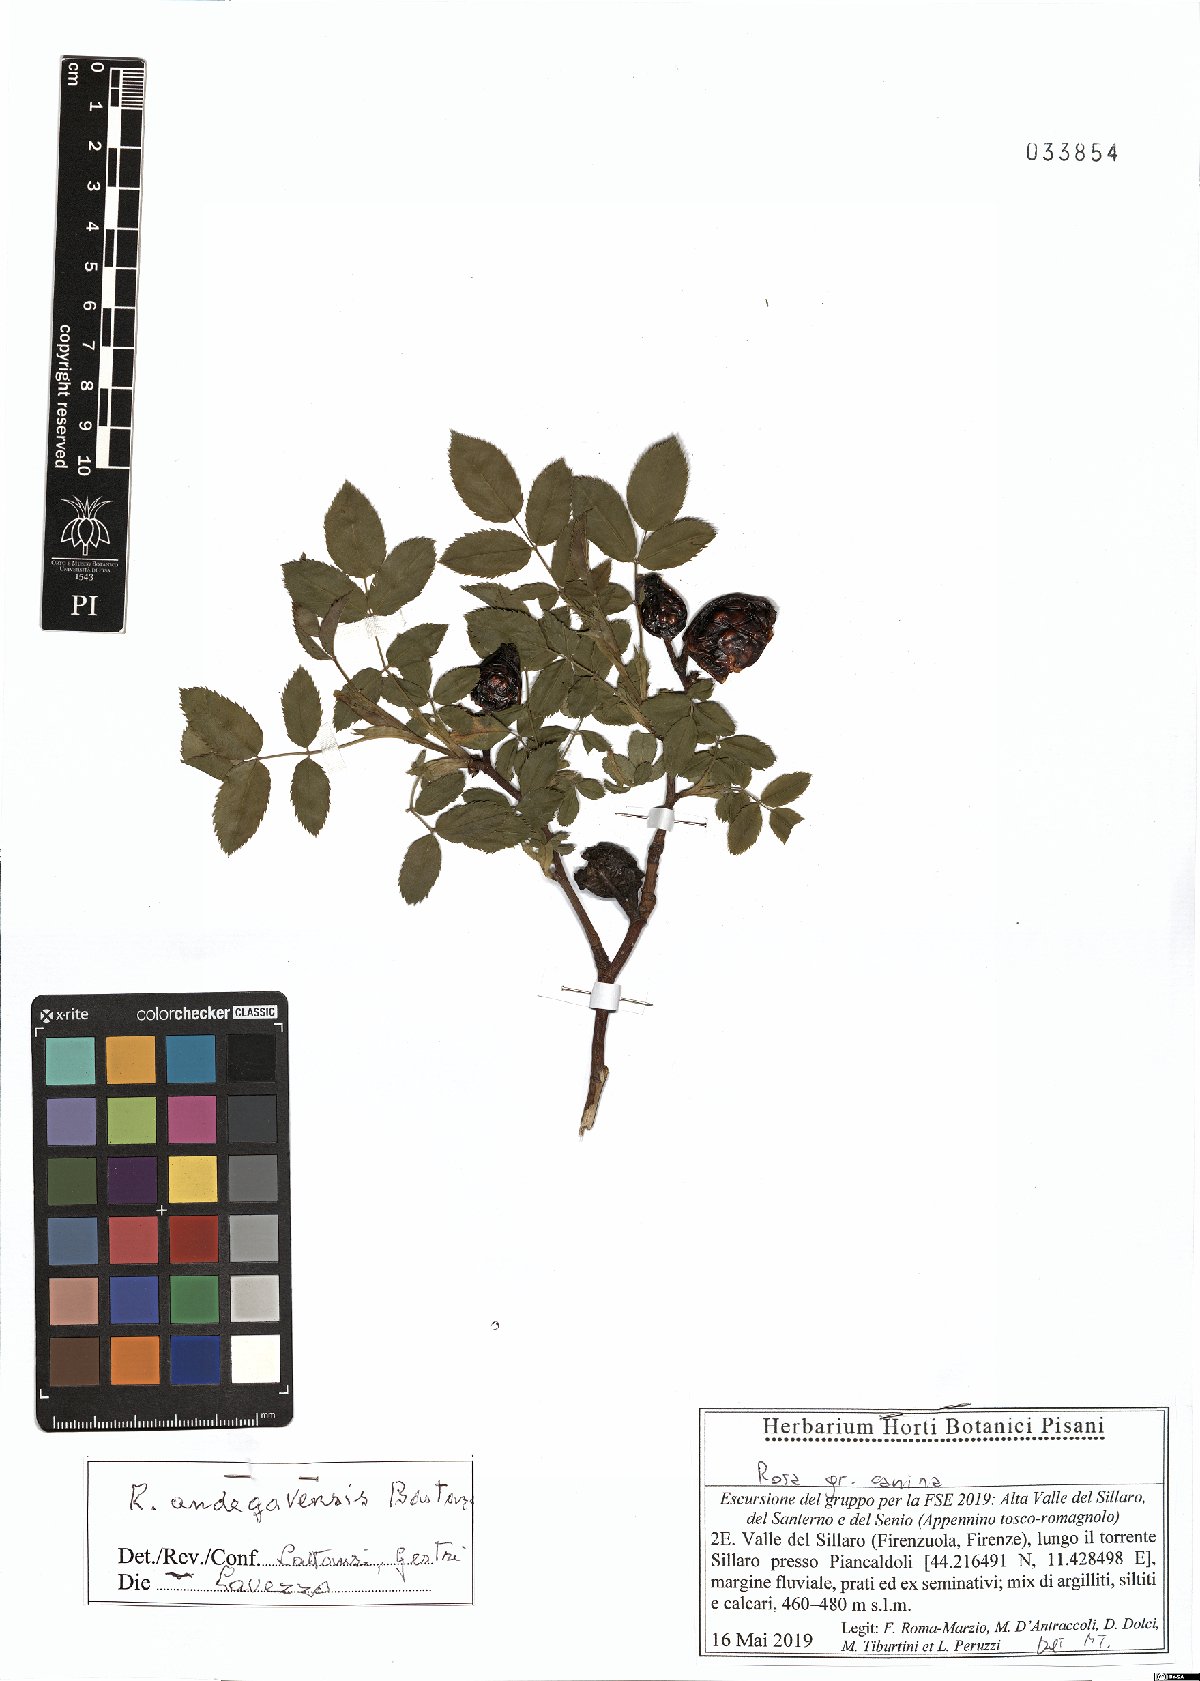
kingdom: Plantae
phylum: Tracheophyta
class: Magnoliopsida
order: Rosales
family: Rosaceae
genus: Rosa
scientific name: Rosa canina
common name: Dog rose
